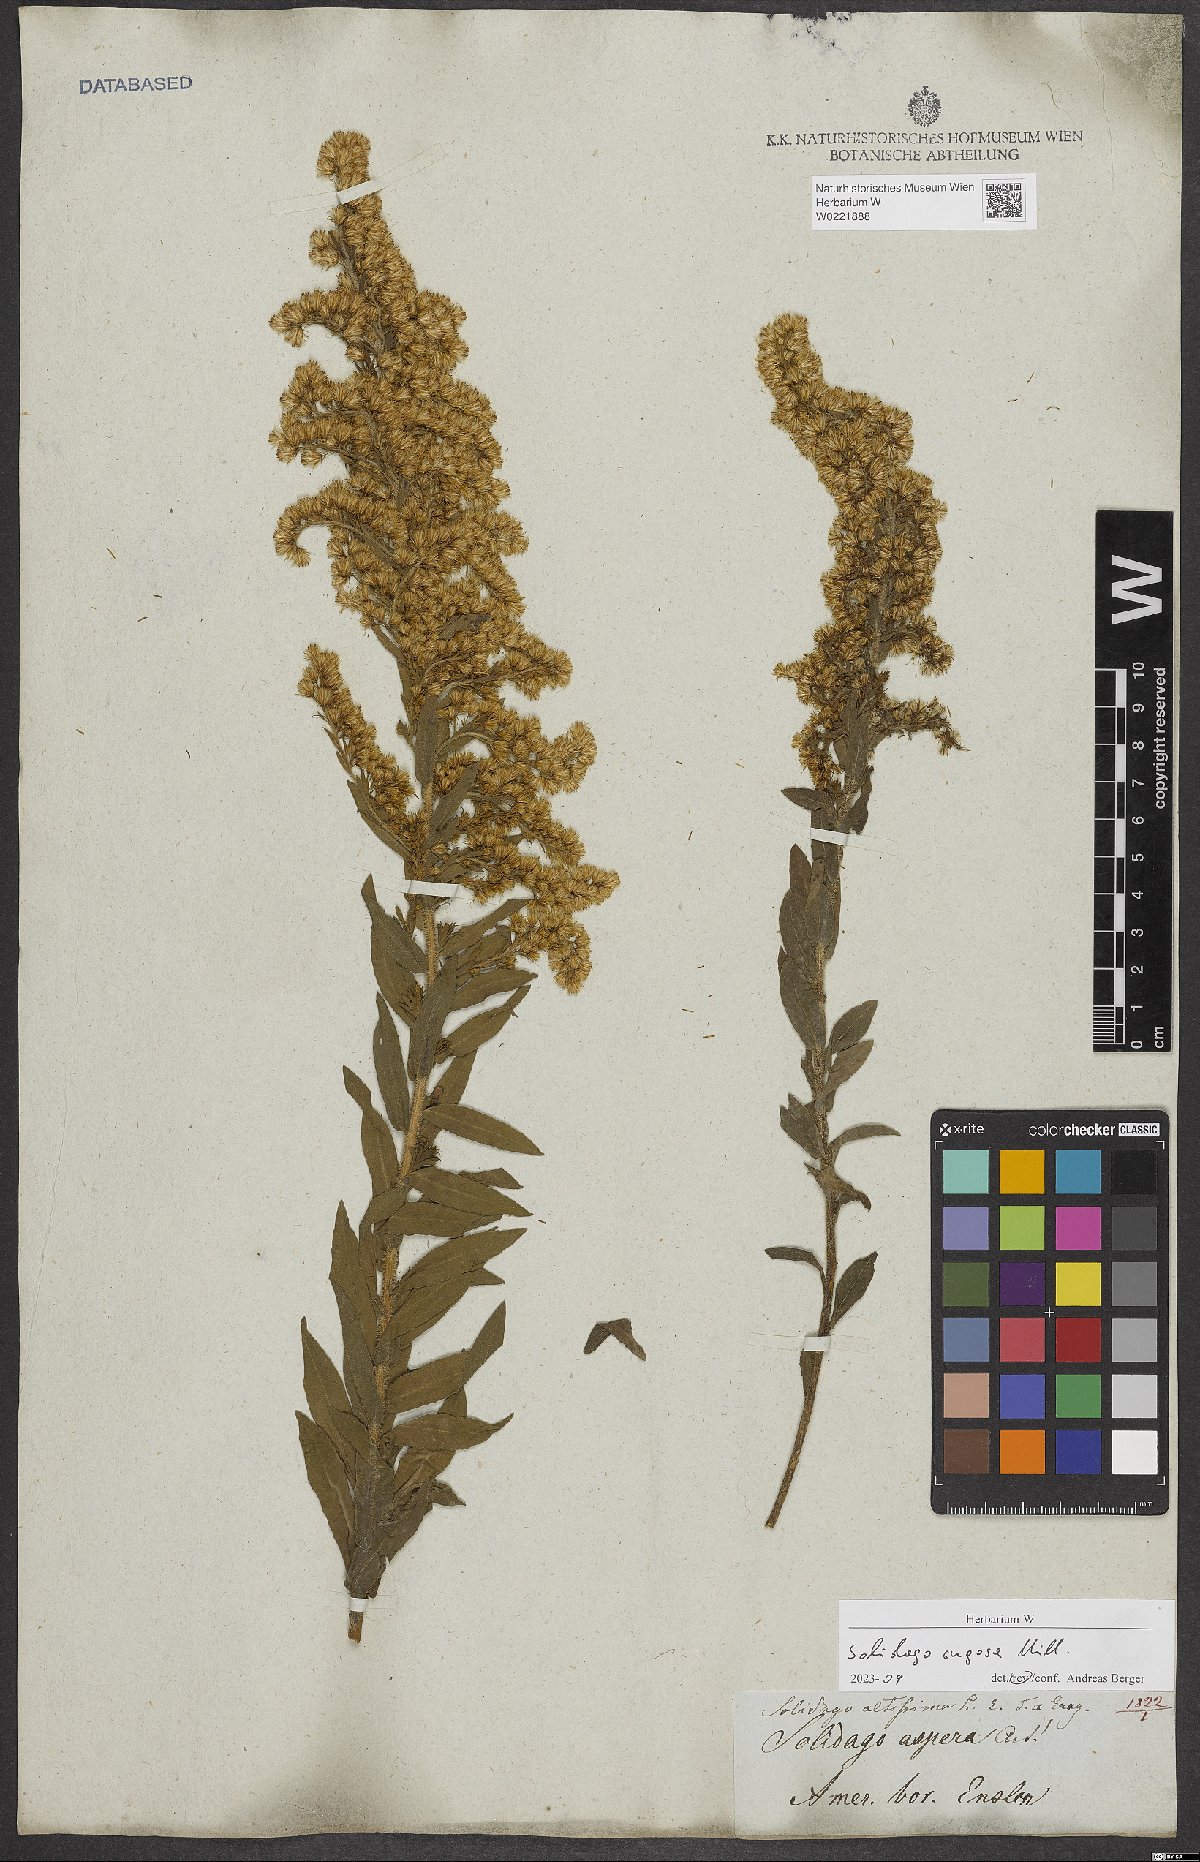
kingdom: Plantae
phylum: Tracheophyta
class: Magnoliopsida
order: Asterales
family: Asteraceae
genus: Solidago
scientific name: Solidago rugosa
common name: Rough-stemmed goldenrod
